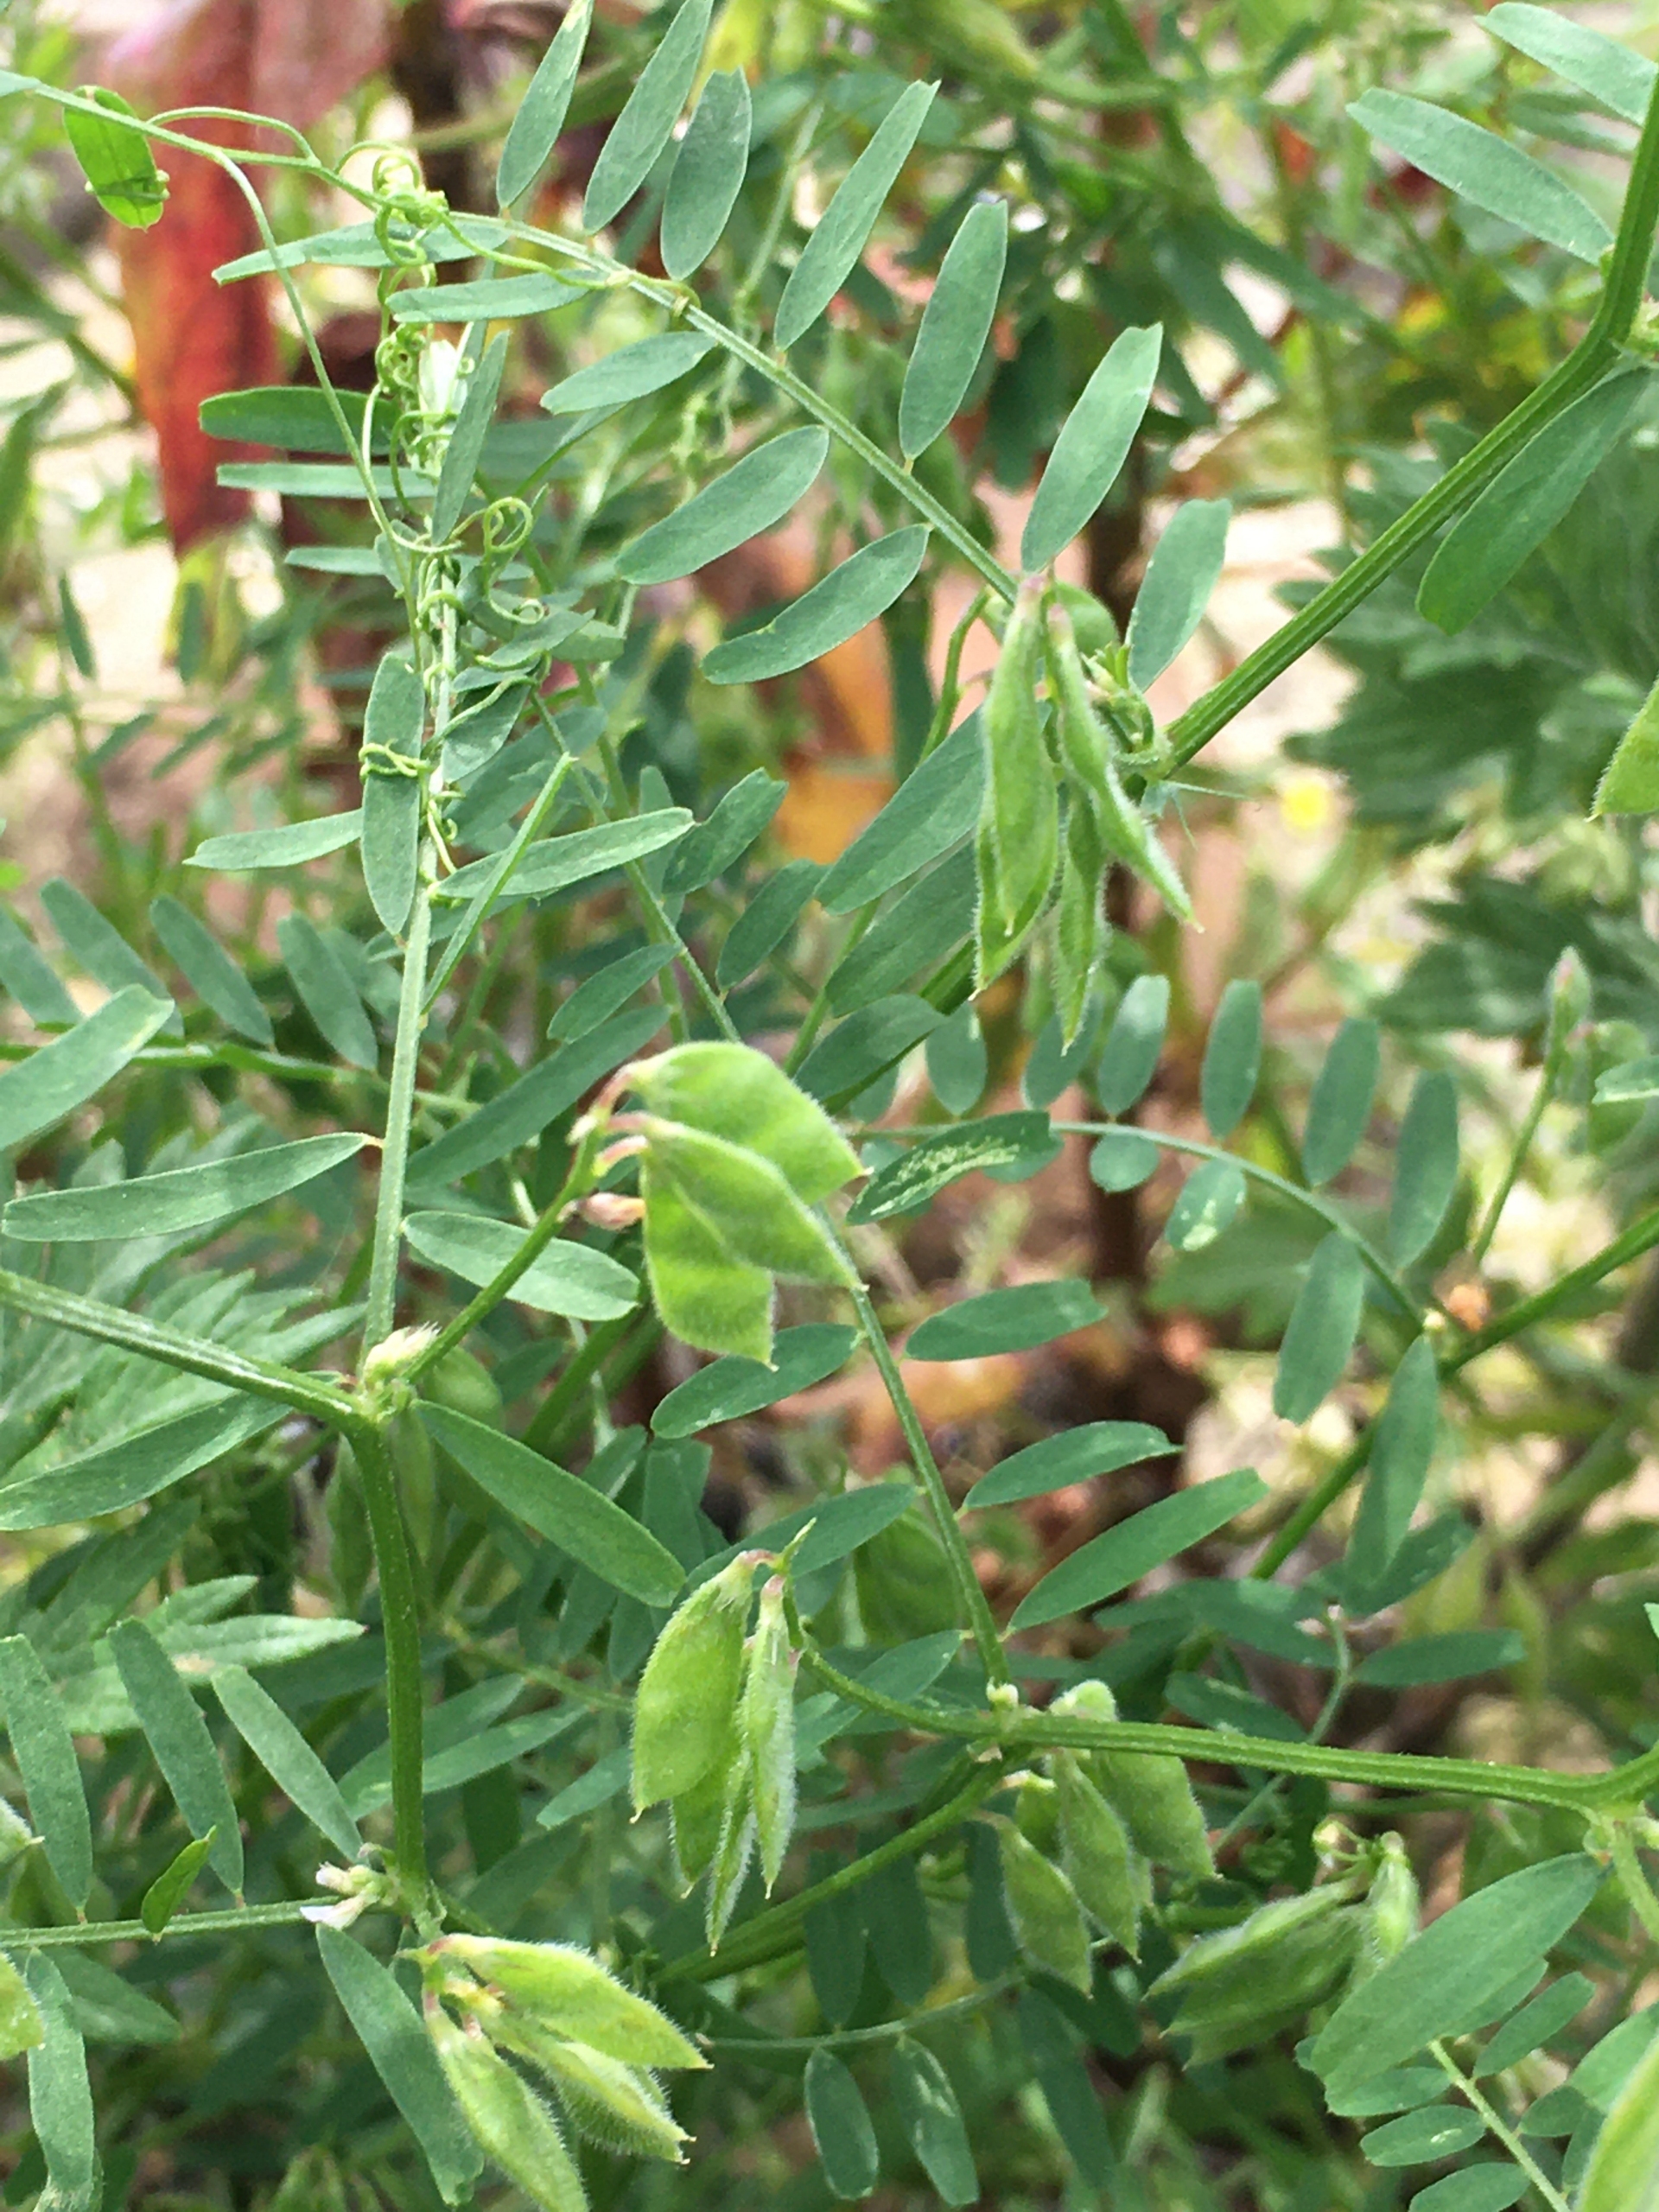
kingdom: Plantae
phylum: Tracheophyta
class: Magnoliopsida
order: Fabales
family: Fabaceae
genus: Vicia
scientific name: Vicia hirsuta
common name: Tofrøet vikke
